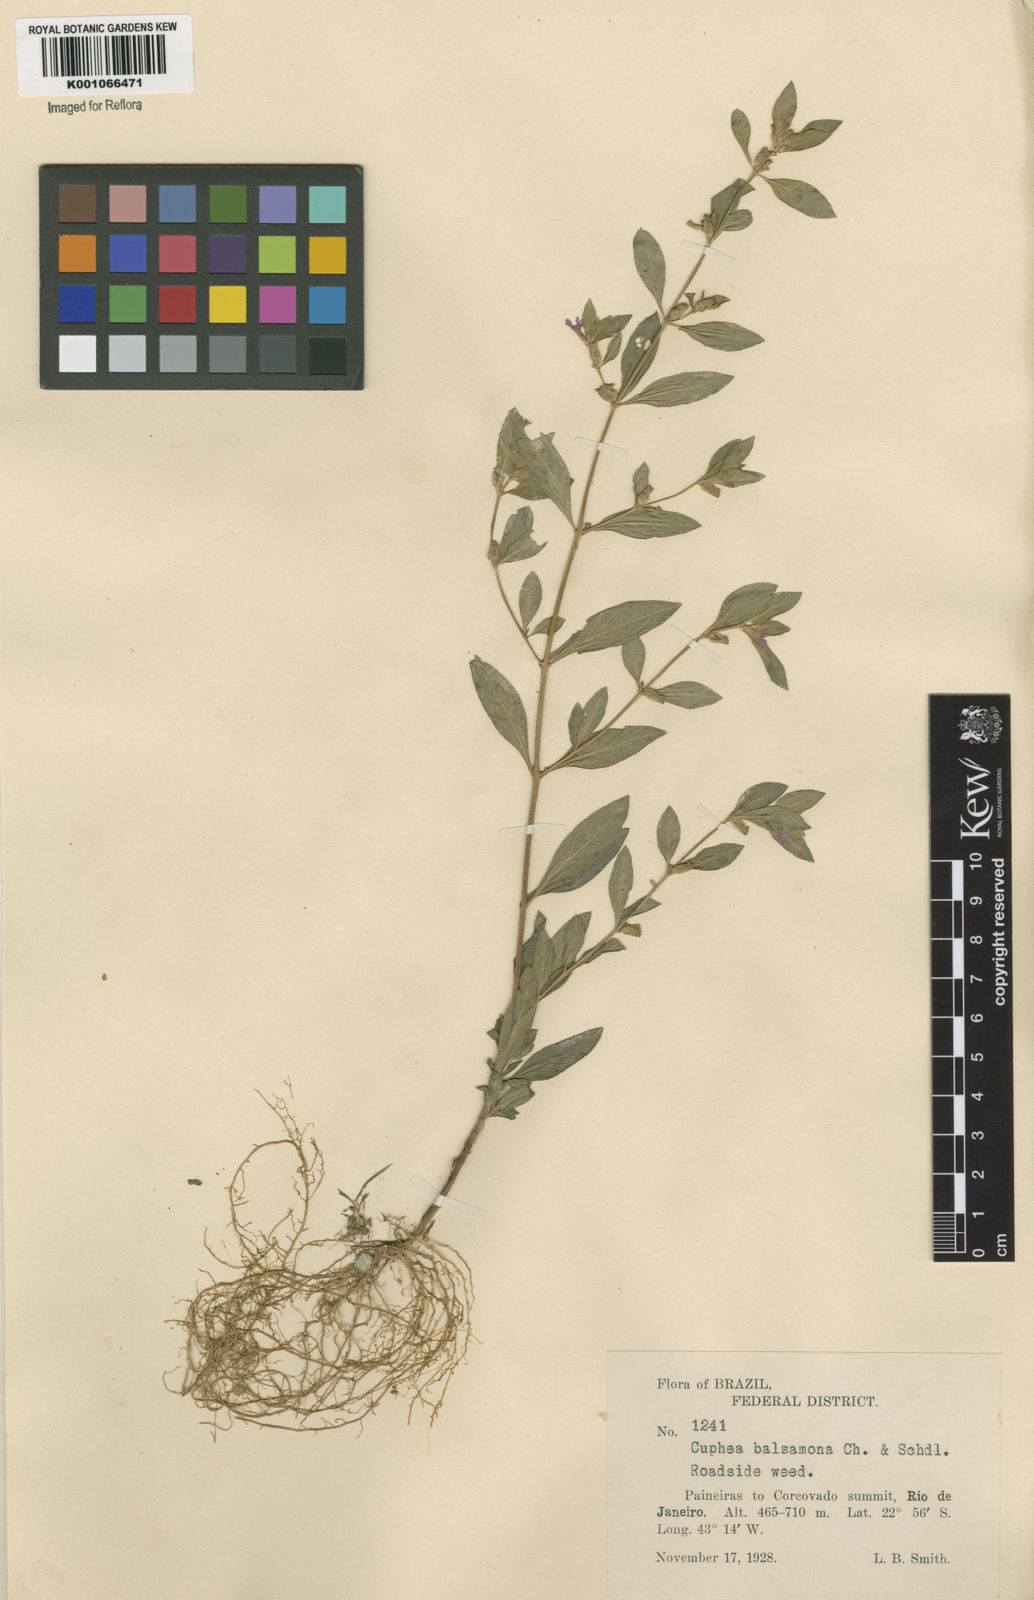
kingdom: Plantae
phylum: Tracheophyta
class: Magnoliopsida
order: Myrtales
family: Lythraceae
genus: Cuphea
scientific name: Cuphea carthagenensis
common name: Colombian waxweed
